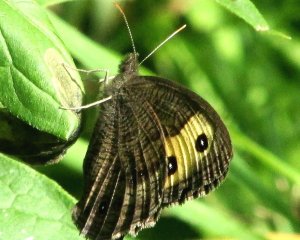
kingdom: Animalia
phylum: Arthropoda
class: Insecta
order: Lepidoptera
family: Nymphalidae
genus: Cercyonis
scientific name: Cercyonis pegala
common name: Common Wood-Nymph
